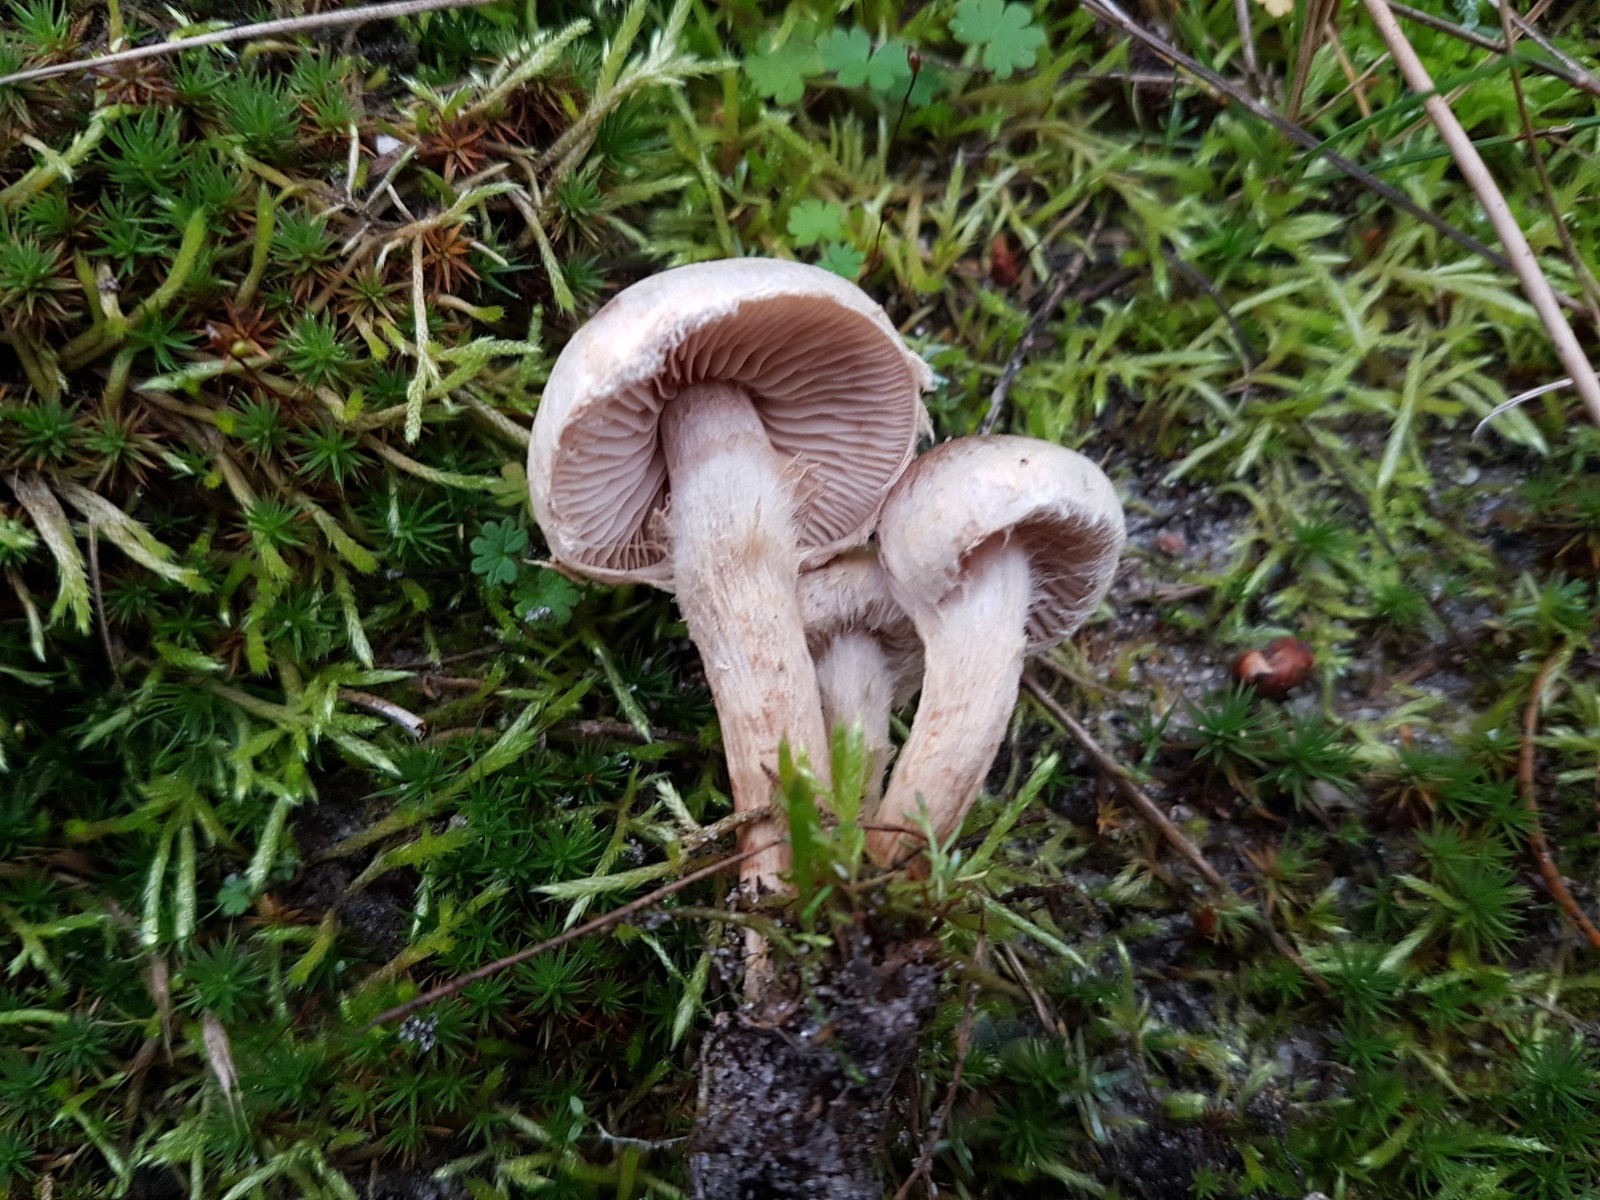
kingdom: Fungi
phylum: Basidiomycota
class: Agaricomycetes
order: Agaricales
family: Hymenogastraceae
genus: Hebeloma
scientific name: Hebeloma mesophaeum
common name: lerbrun tåreblad
